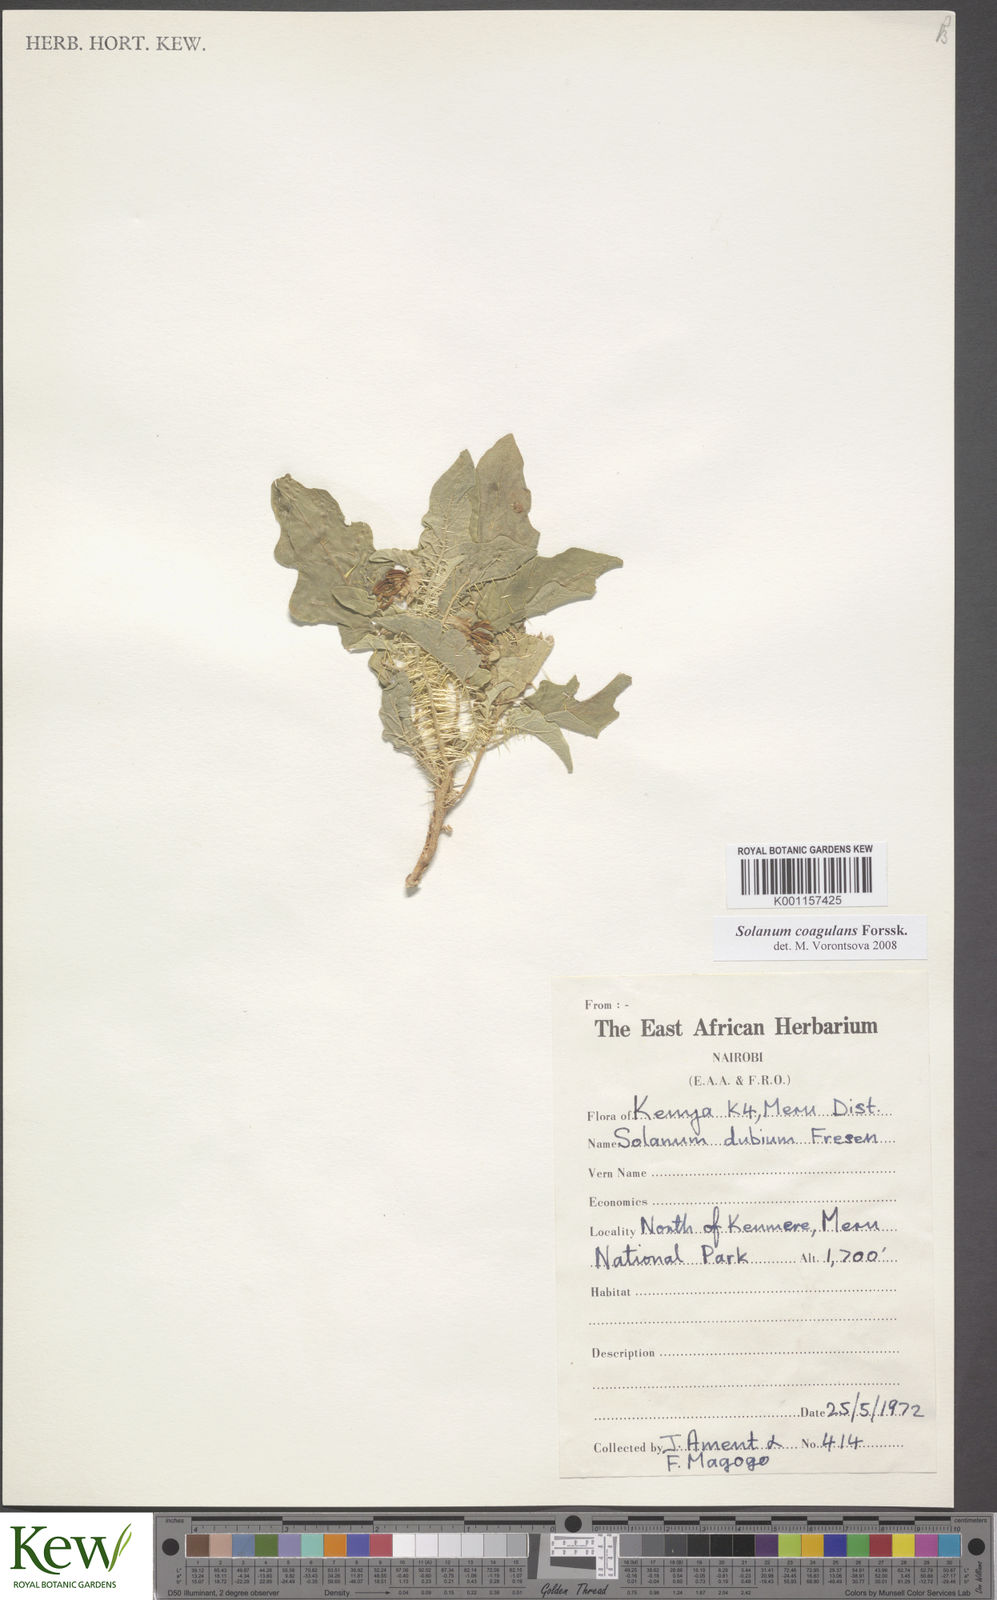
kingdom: Plantae
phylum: Tracheophyta
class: Magnoliopsida
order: Solanales
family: Solanaceae
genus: Solanum
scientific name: Solanum coagulans
